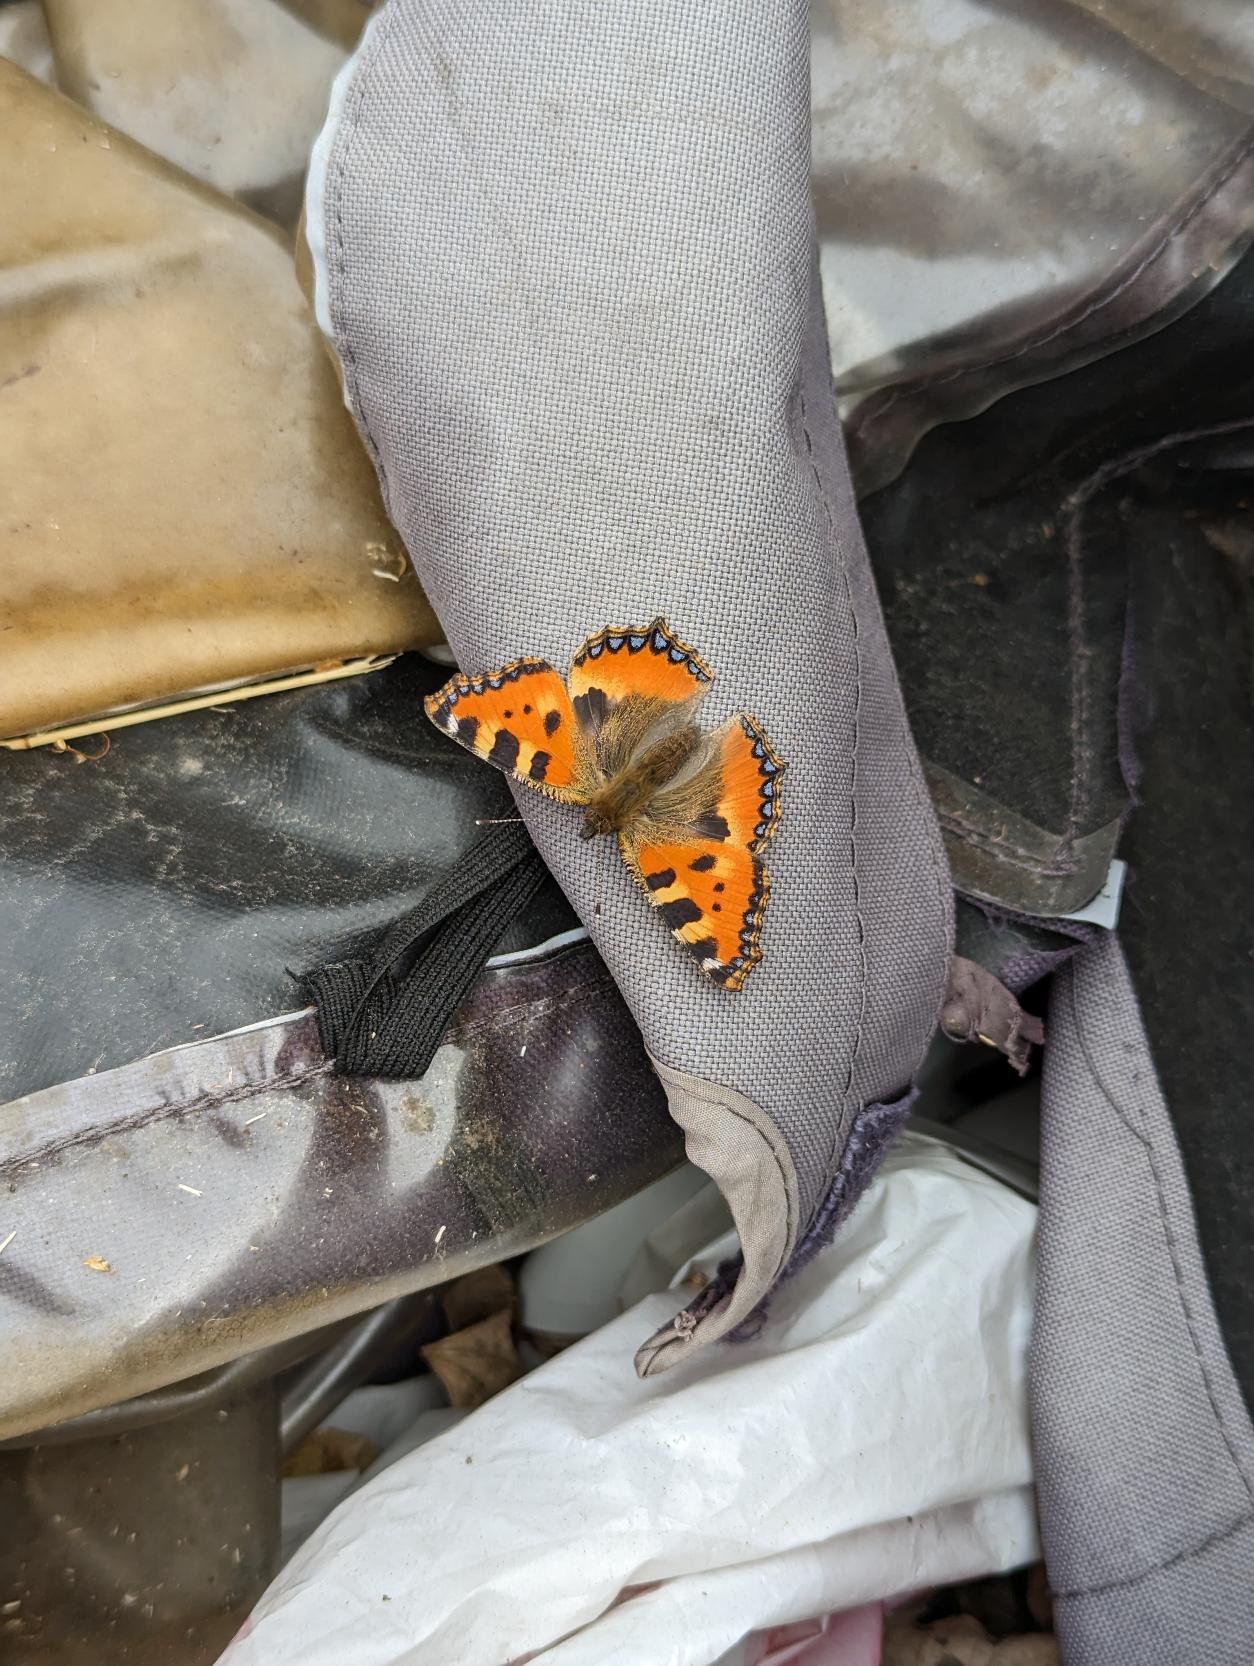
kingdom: Animalia
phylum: Arthropoda
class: Insecta
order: Lepidoptera
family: Nymphalidae
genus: Aglais
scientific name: Aglais urticae
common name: Nældens takvinge
